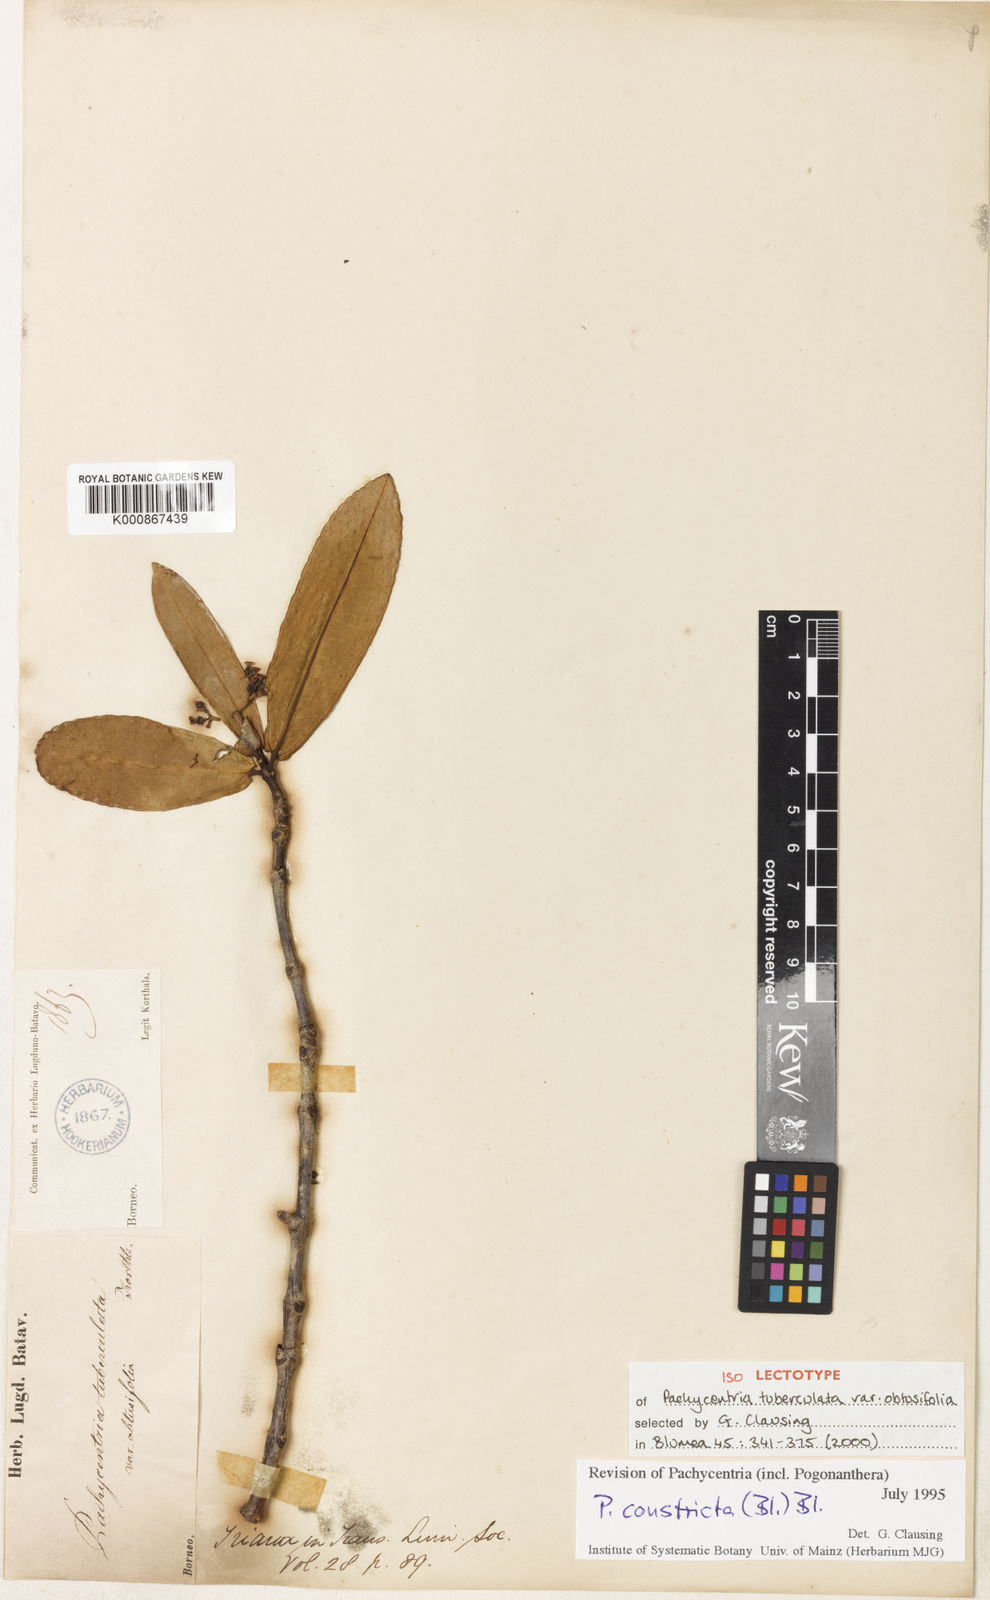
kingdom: Plantae
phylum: Tracheophyta
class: Magnoliopsida
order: Myrtales
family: Melastomataceae
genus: Pachycentria
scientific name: Pachycentria constricta
